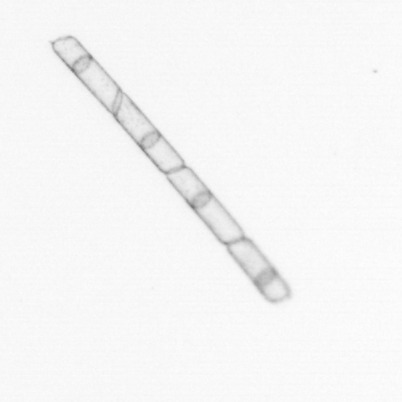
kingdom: Chromista
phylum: Ochrophyta
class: Bacillariophyceae
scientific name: Bacillariophyceae
